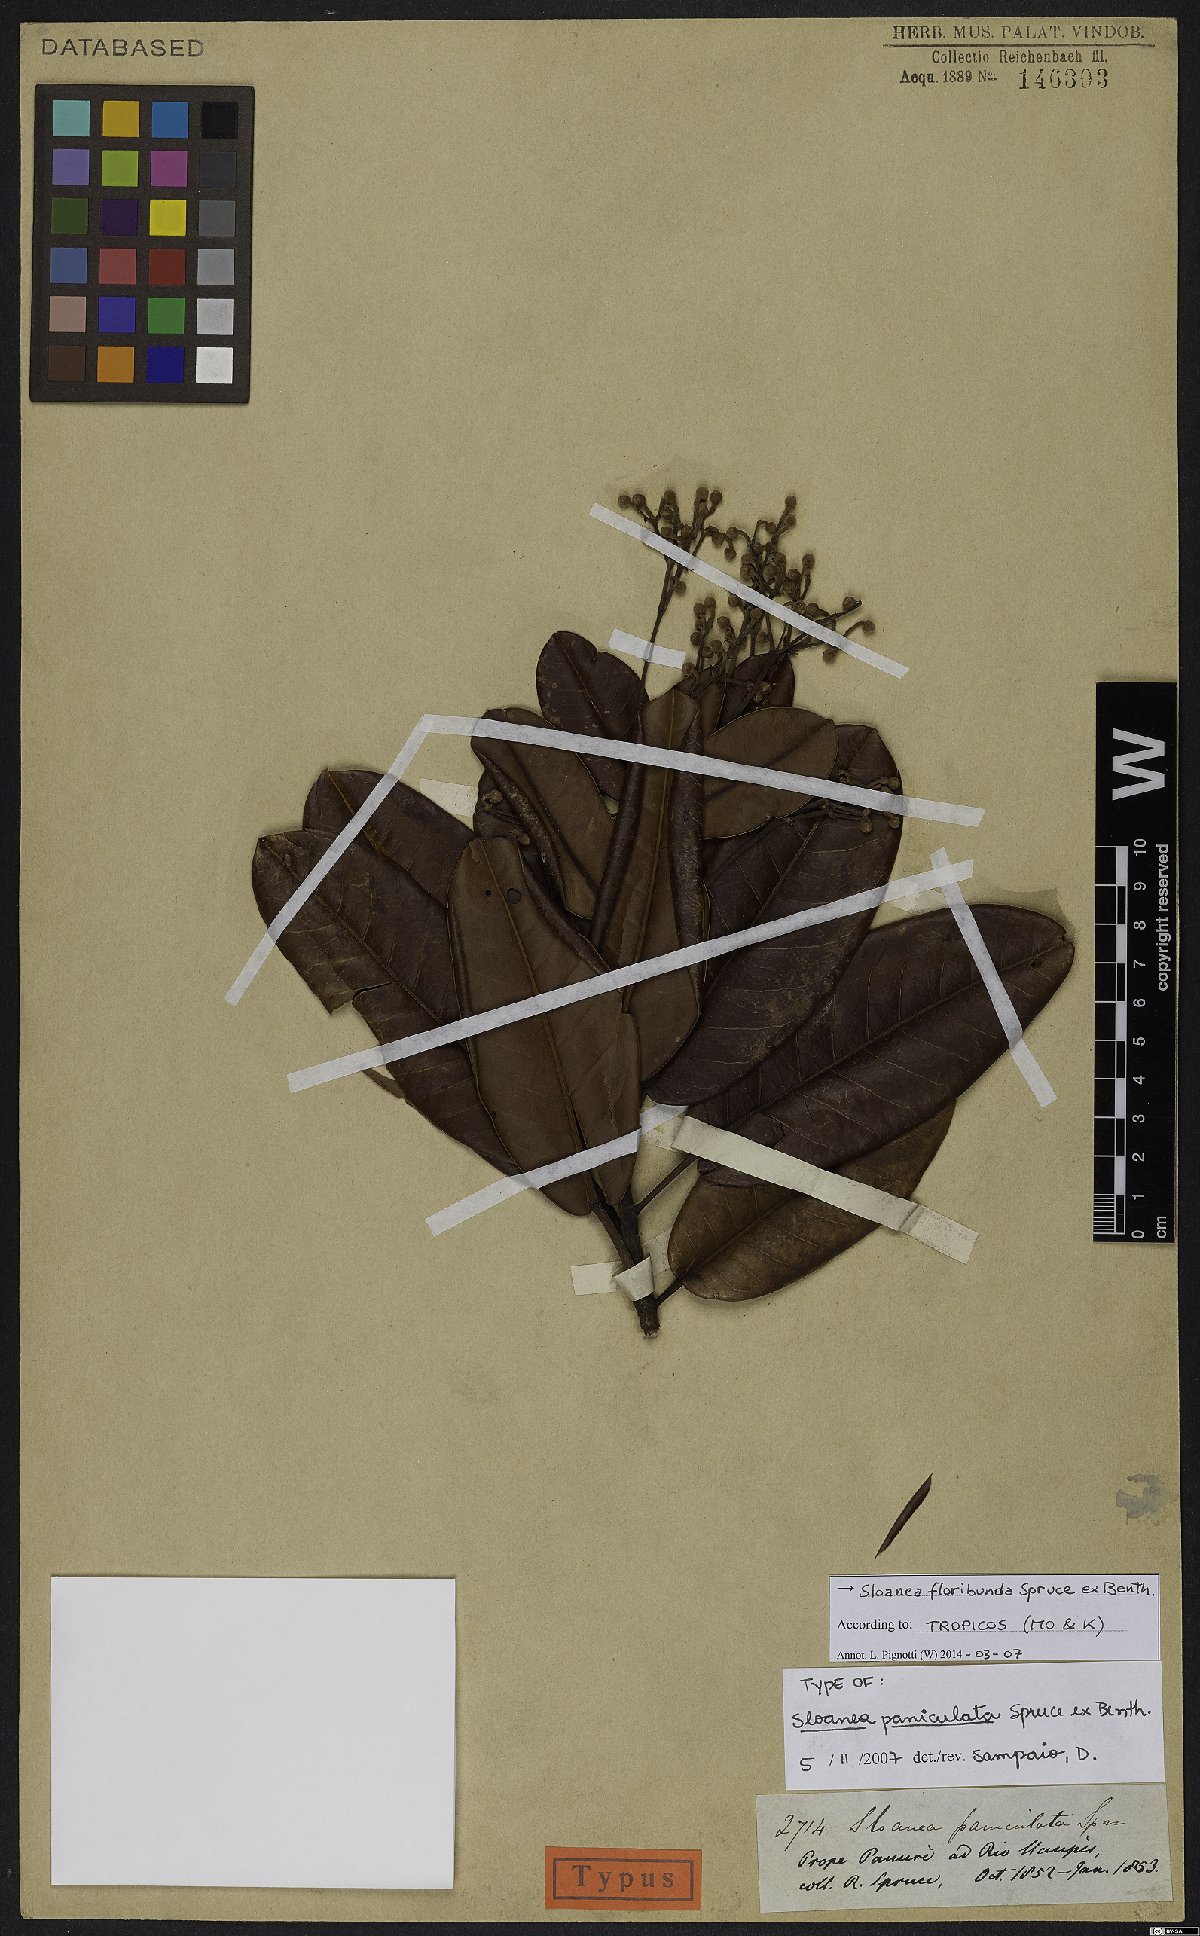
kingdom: Plantae
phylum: Tracheophyta
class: Magnoliopsida
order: Oxalidales
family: Elaeocarpaceae
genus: Sloanea
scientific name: Sloanea floribunda
